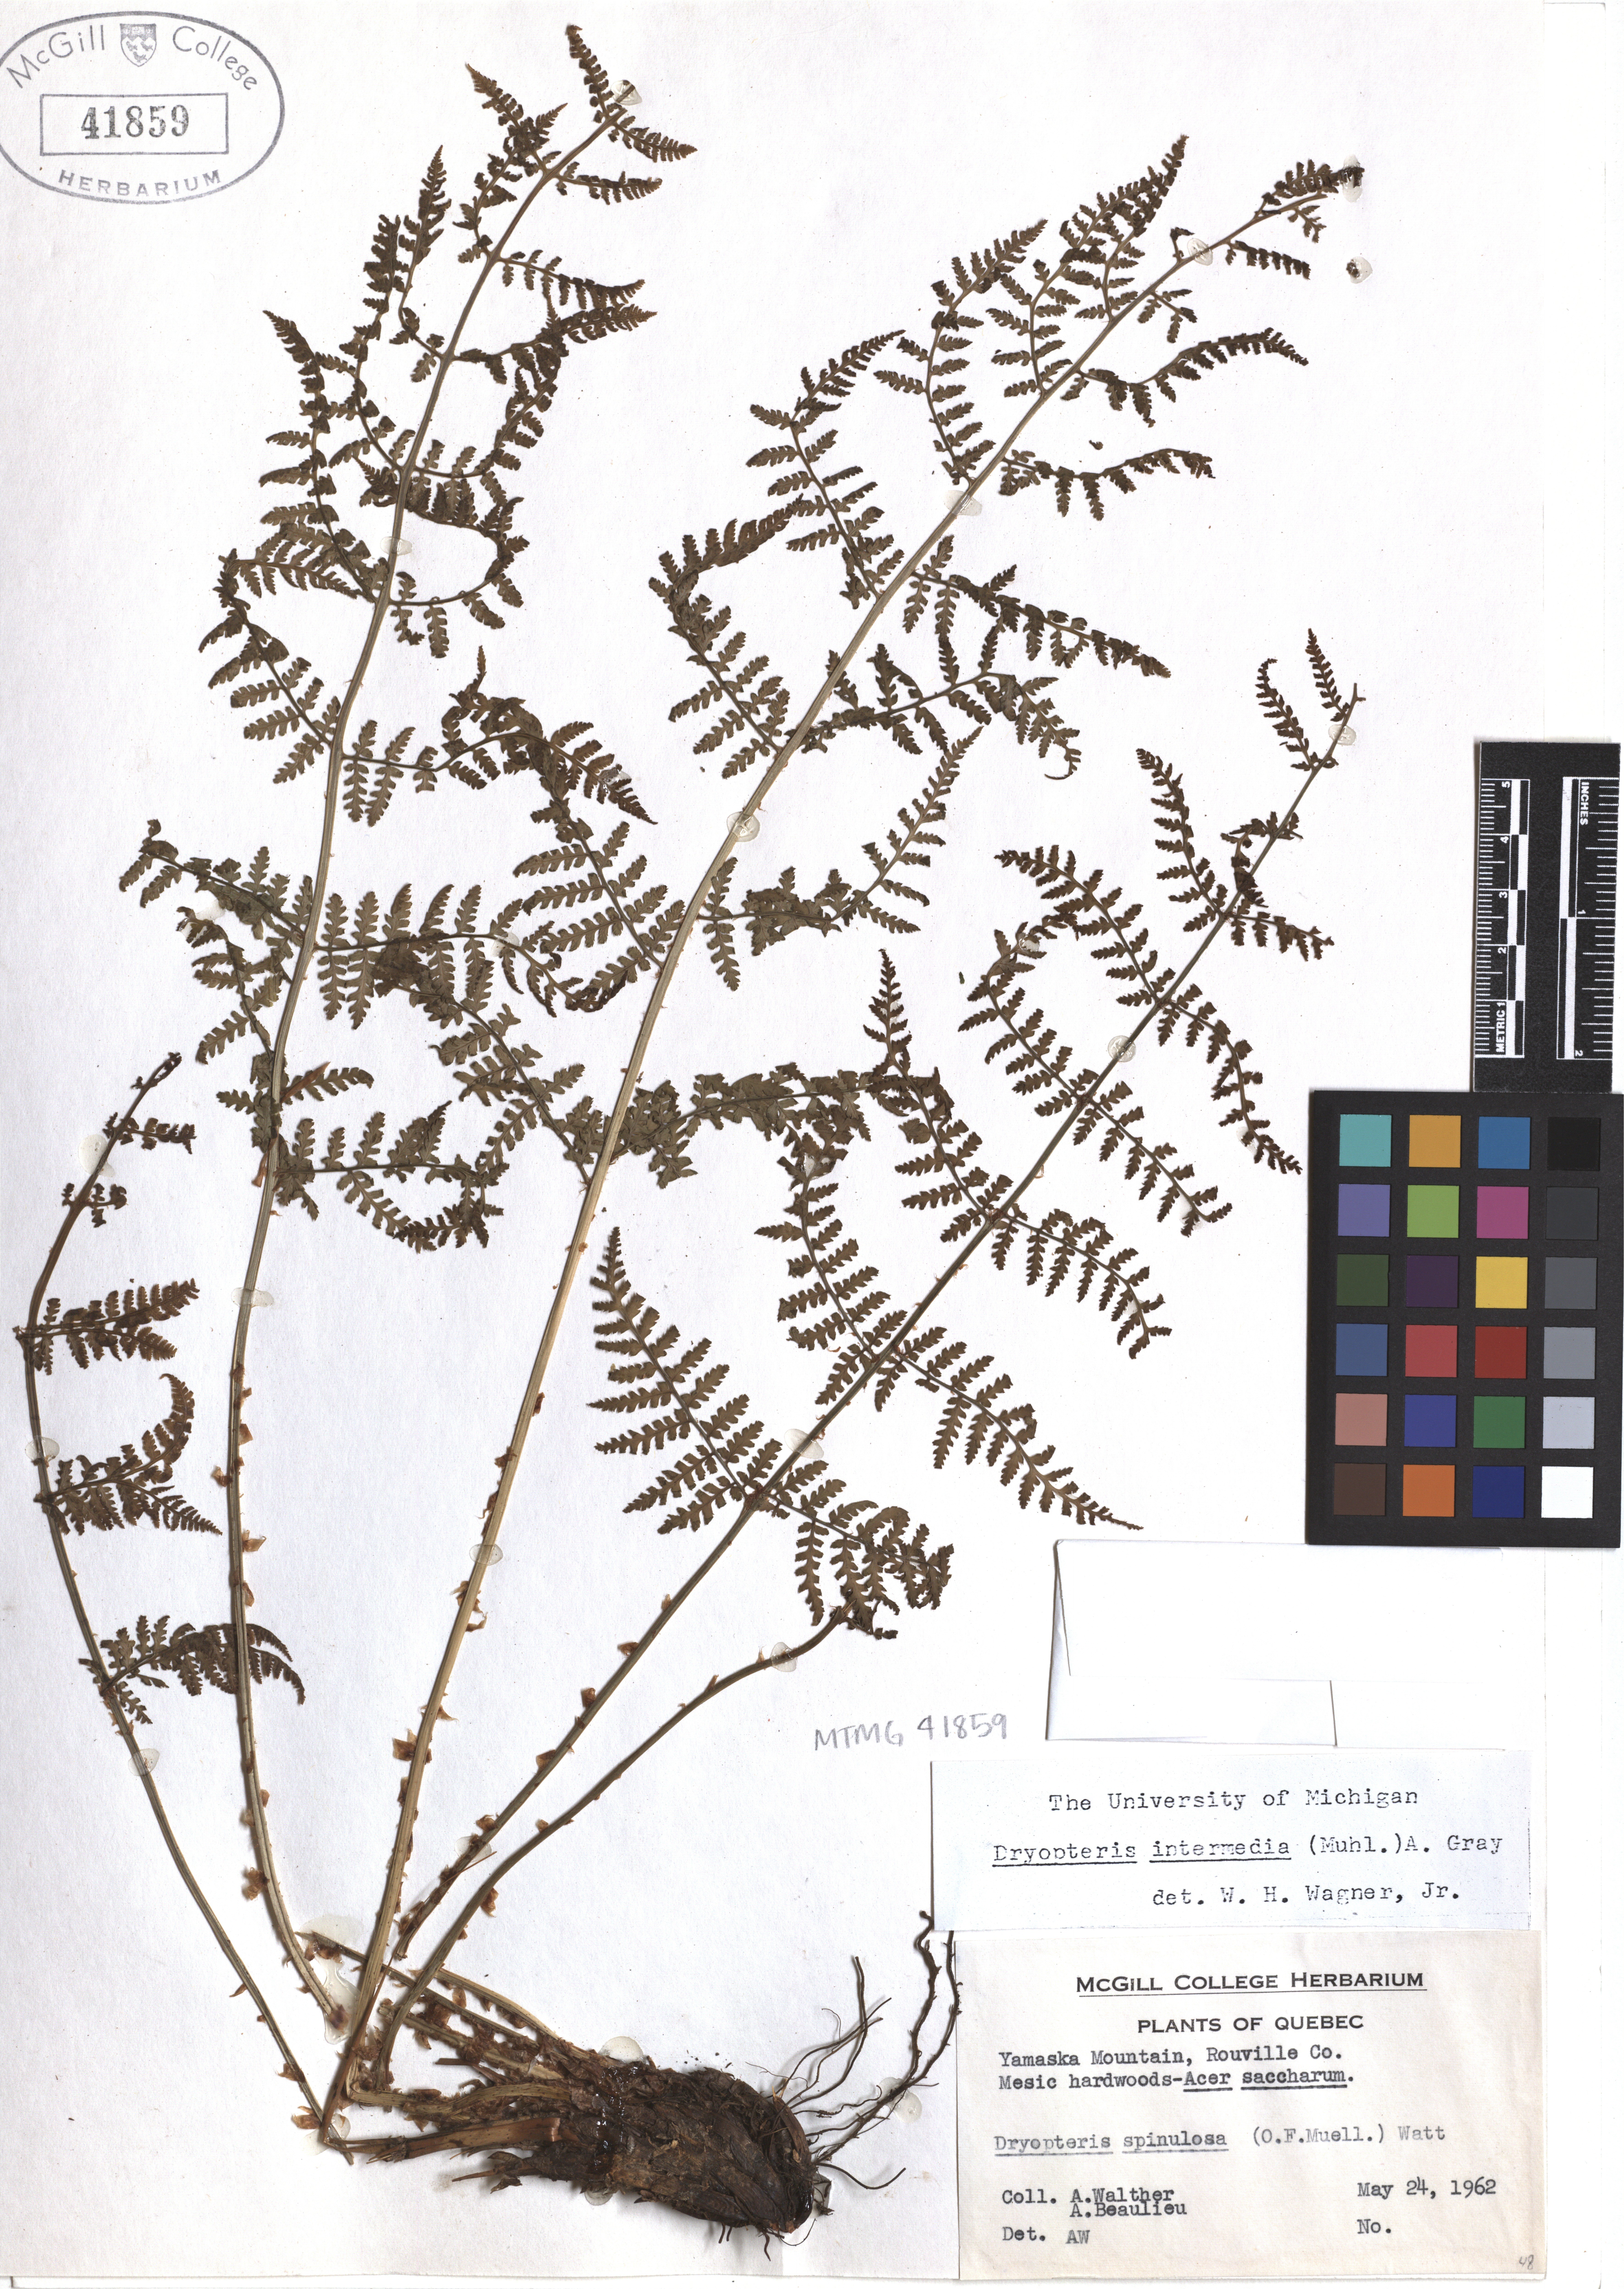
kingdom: Plantae
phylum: Tracheophyta
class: Polypodiopsida
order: Polypodiales
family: Dryopteridaceae
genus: Dryopteris
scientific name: Dryopteris intermedia
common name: Evergreen wood fern
